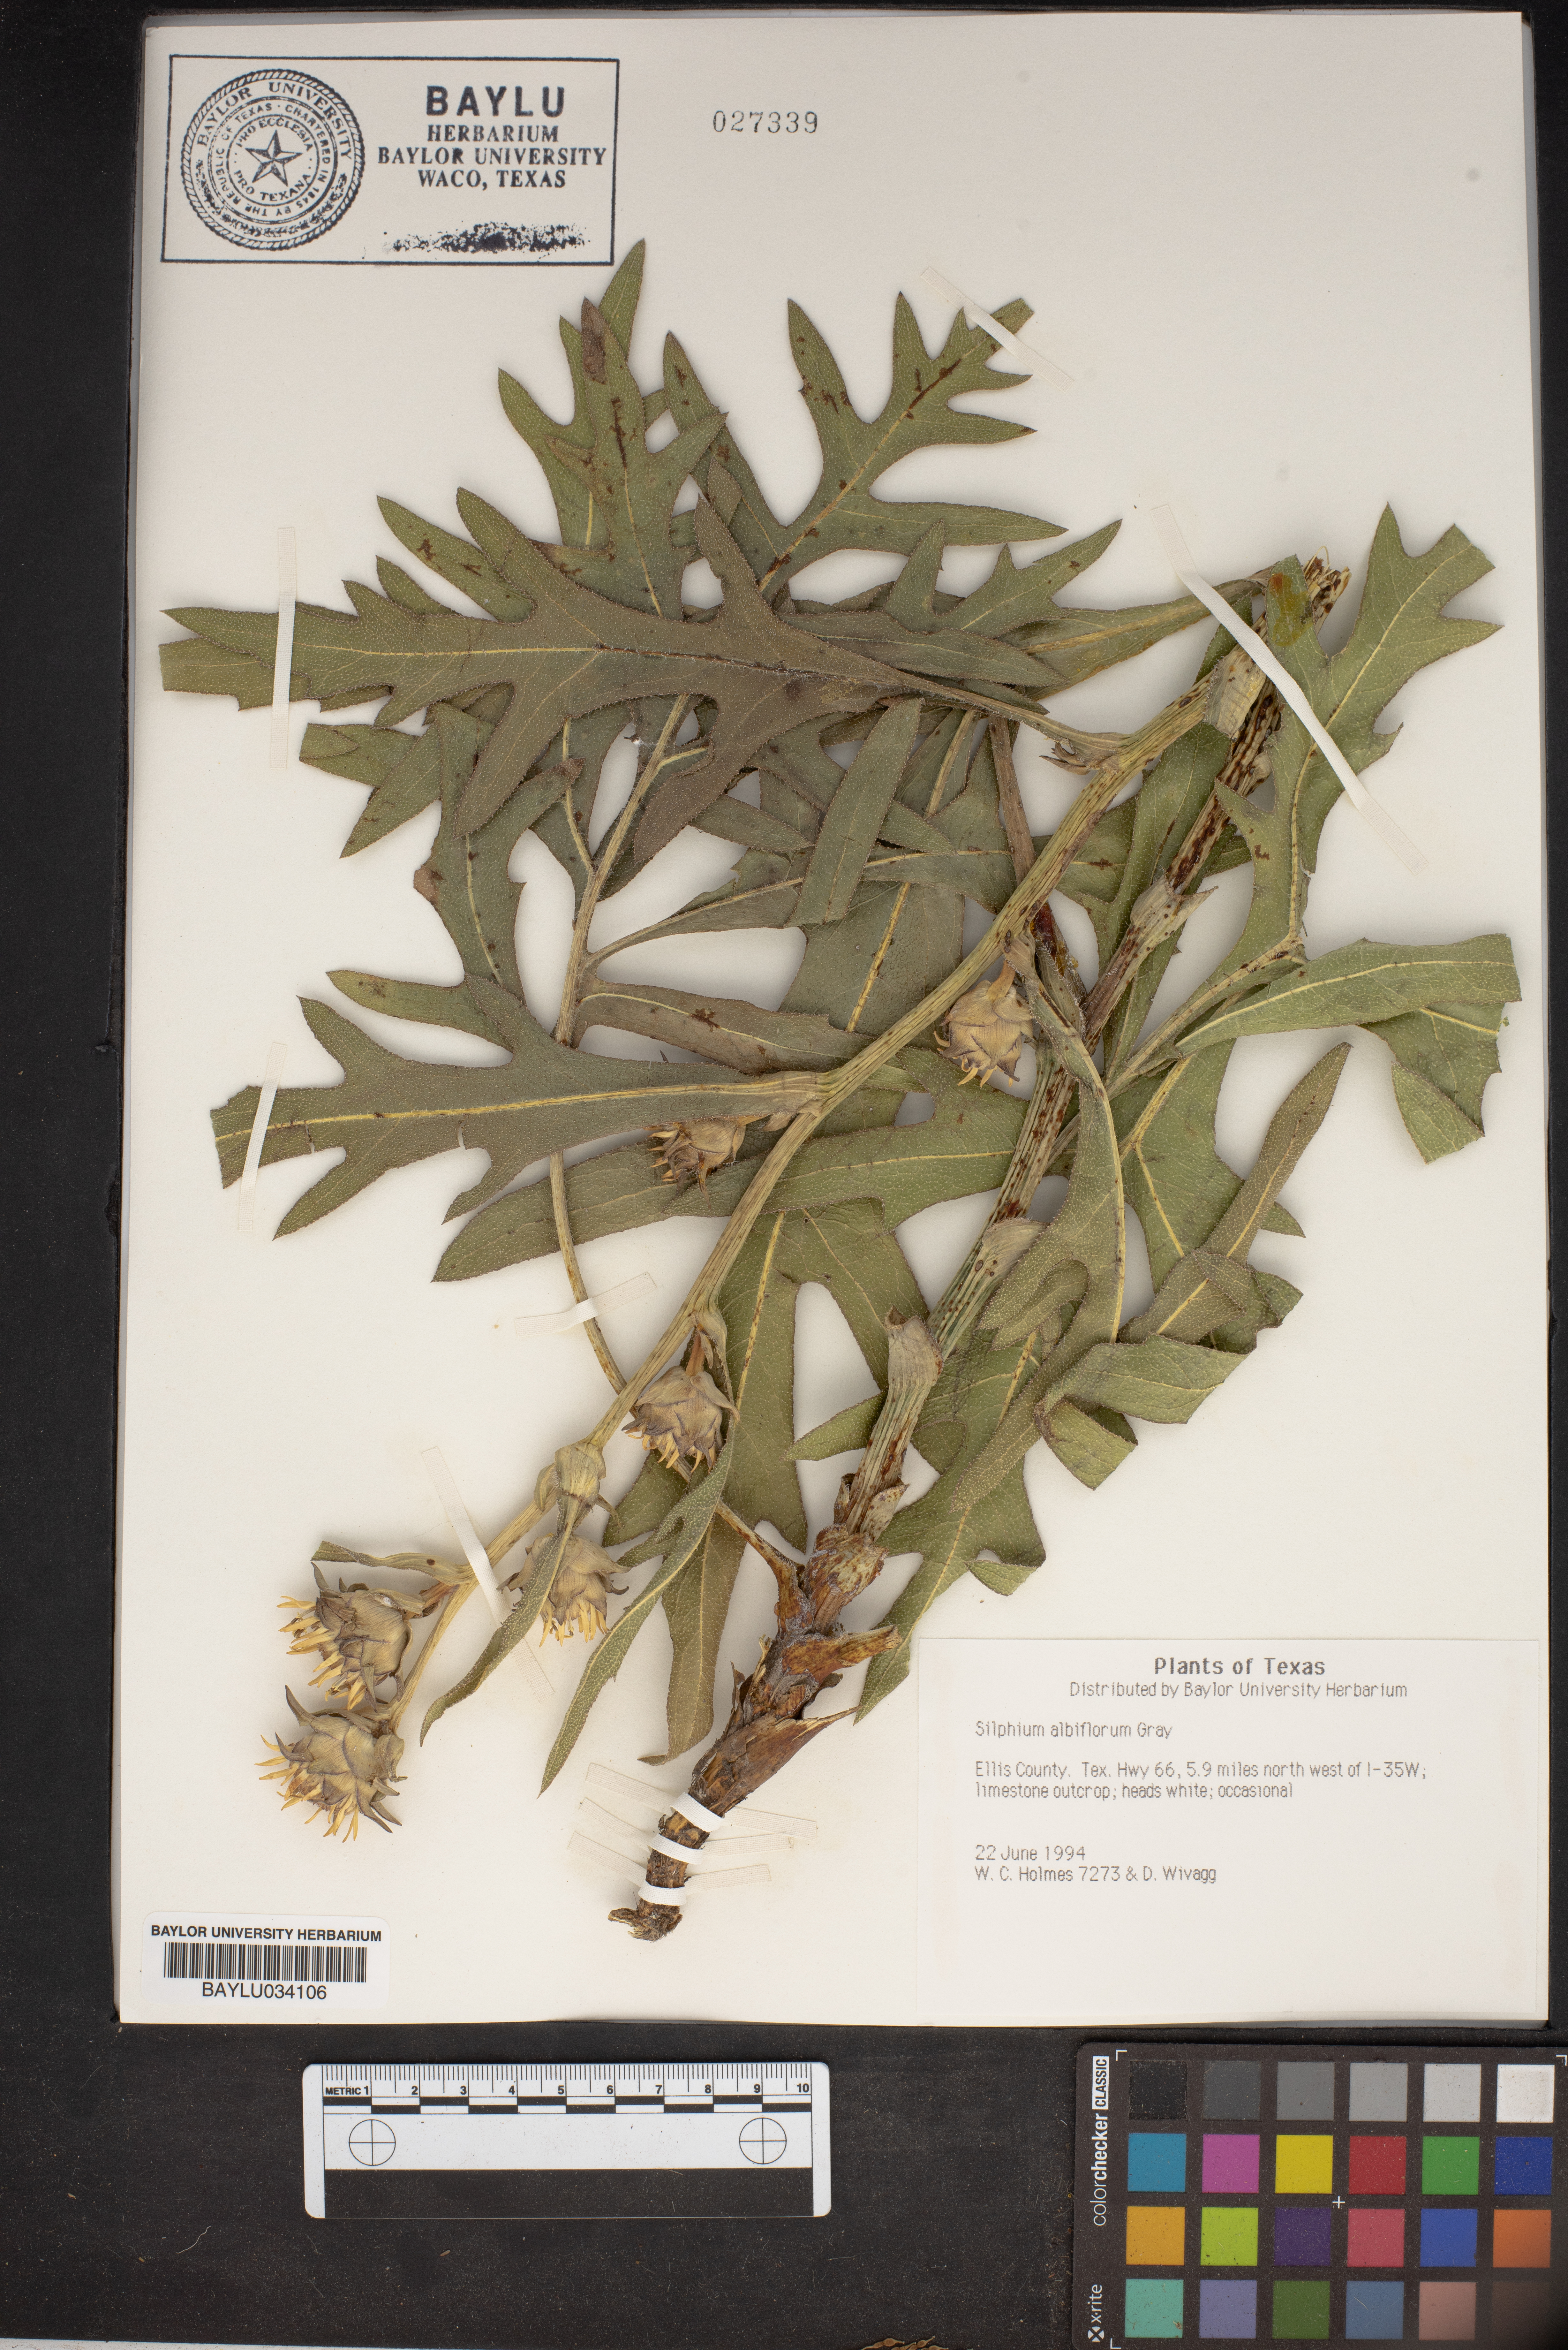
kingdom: Plantae
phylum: Tracheophyta
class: Magnoliopsida
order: Asterales
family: Asteraceae
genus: Silphium
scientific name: Silphium albiflorum
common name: White rosinweed
